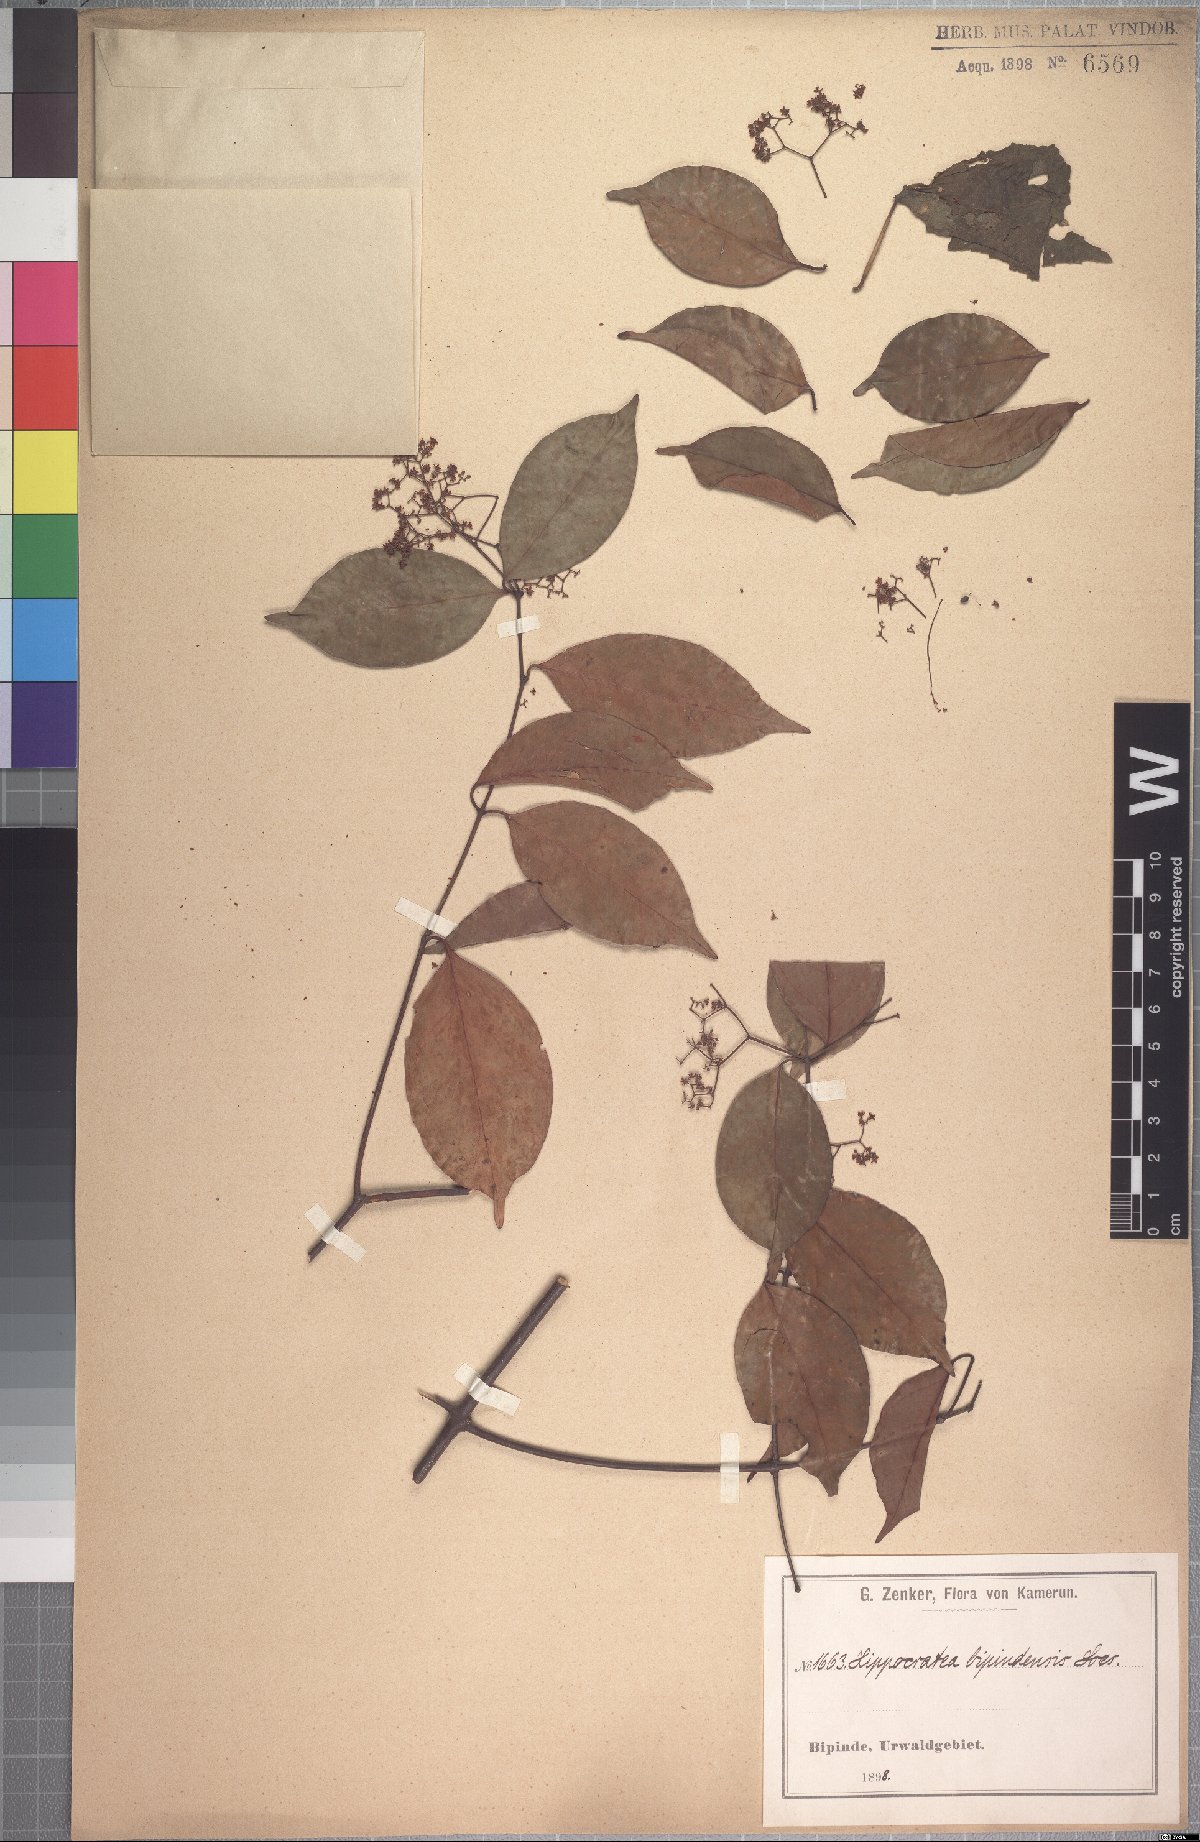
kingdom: Plantae
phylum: Tracheophyta
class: Magnoliopsida
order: Celastrales
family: Celastraceae
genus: Elachyptera
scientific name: Elachyptera bipindensis
